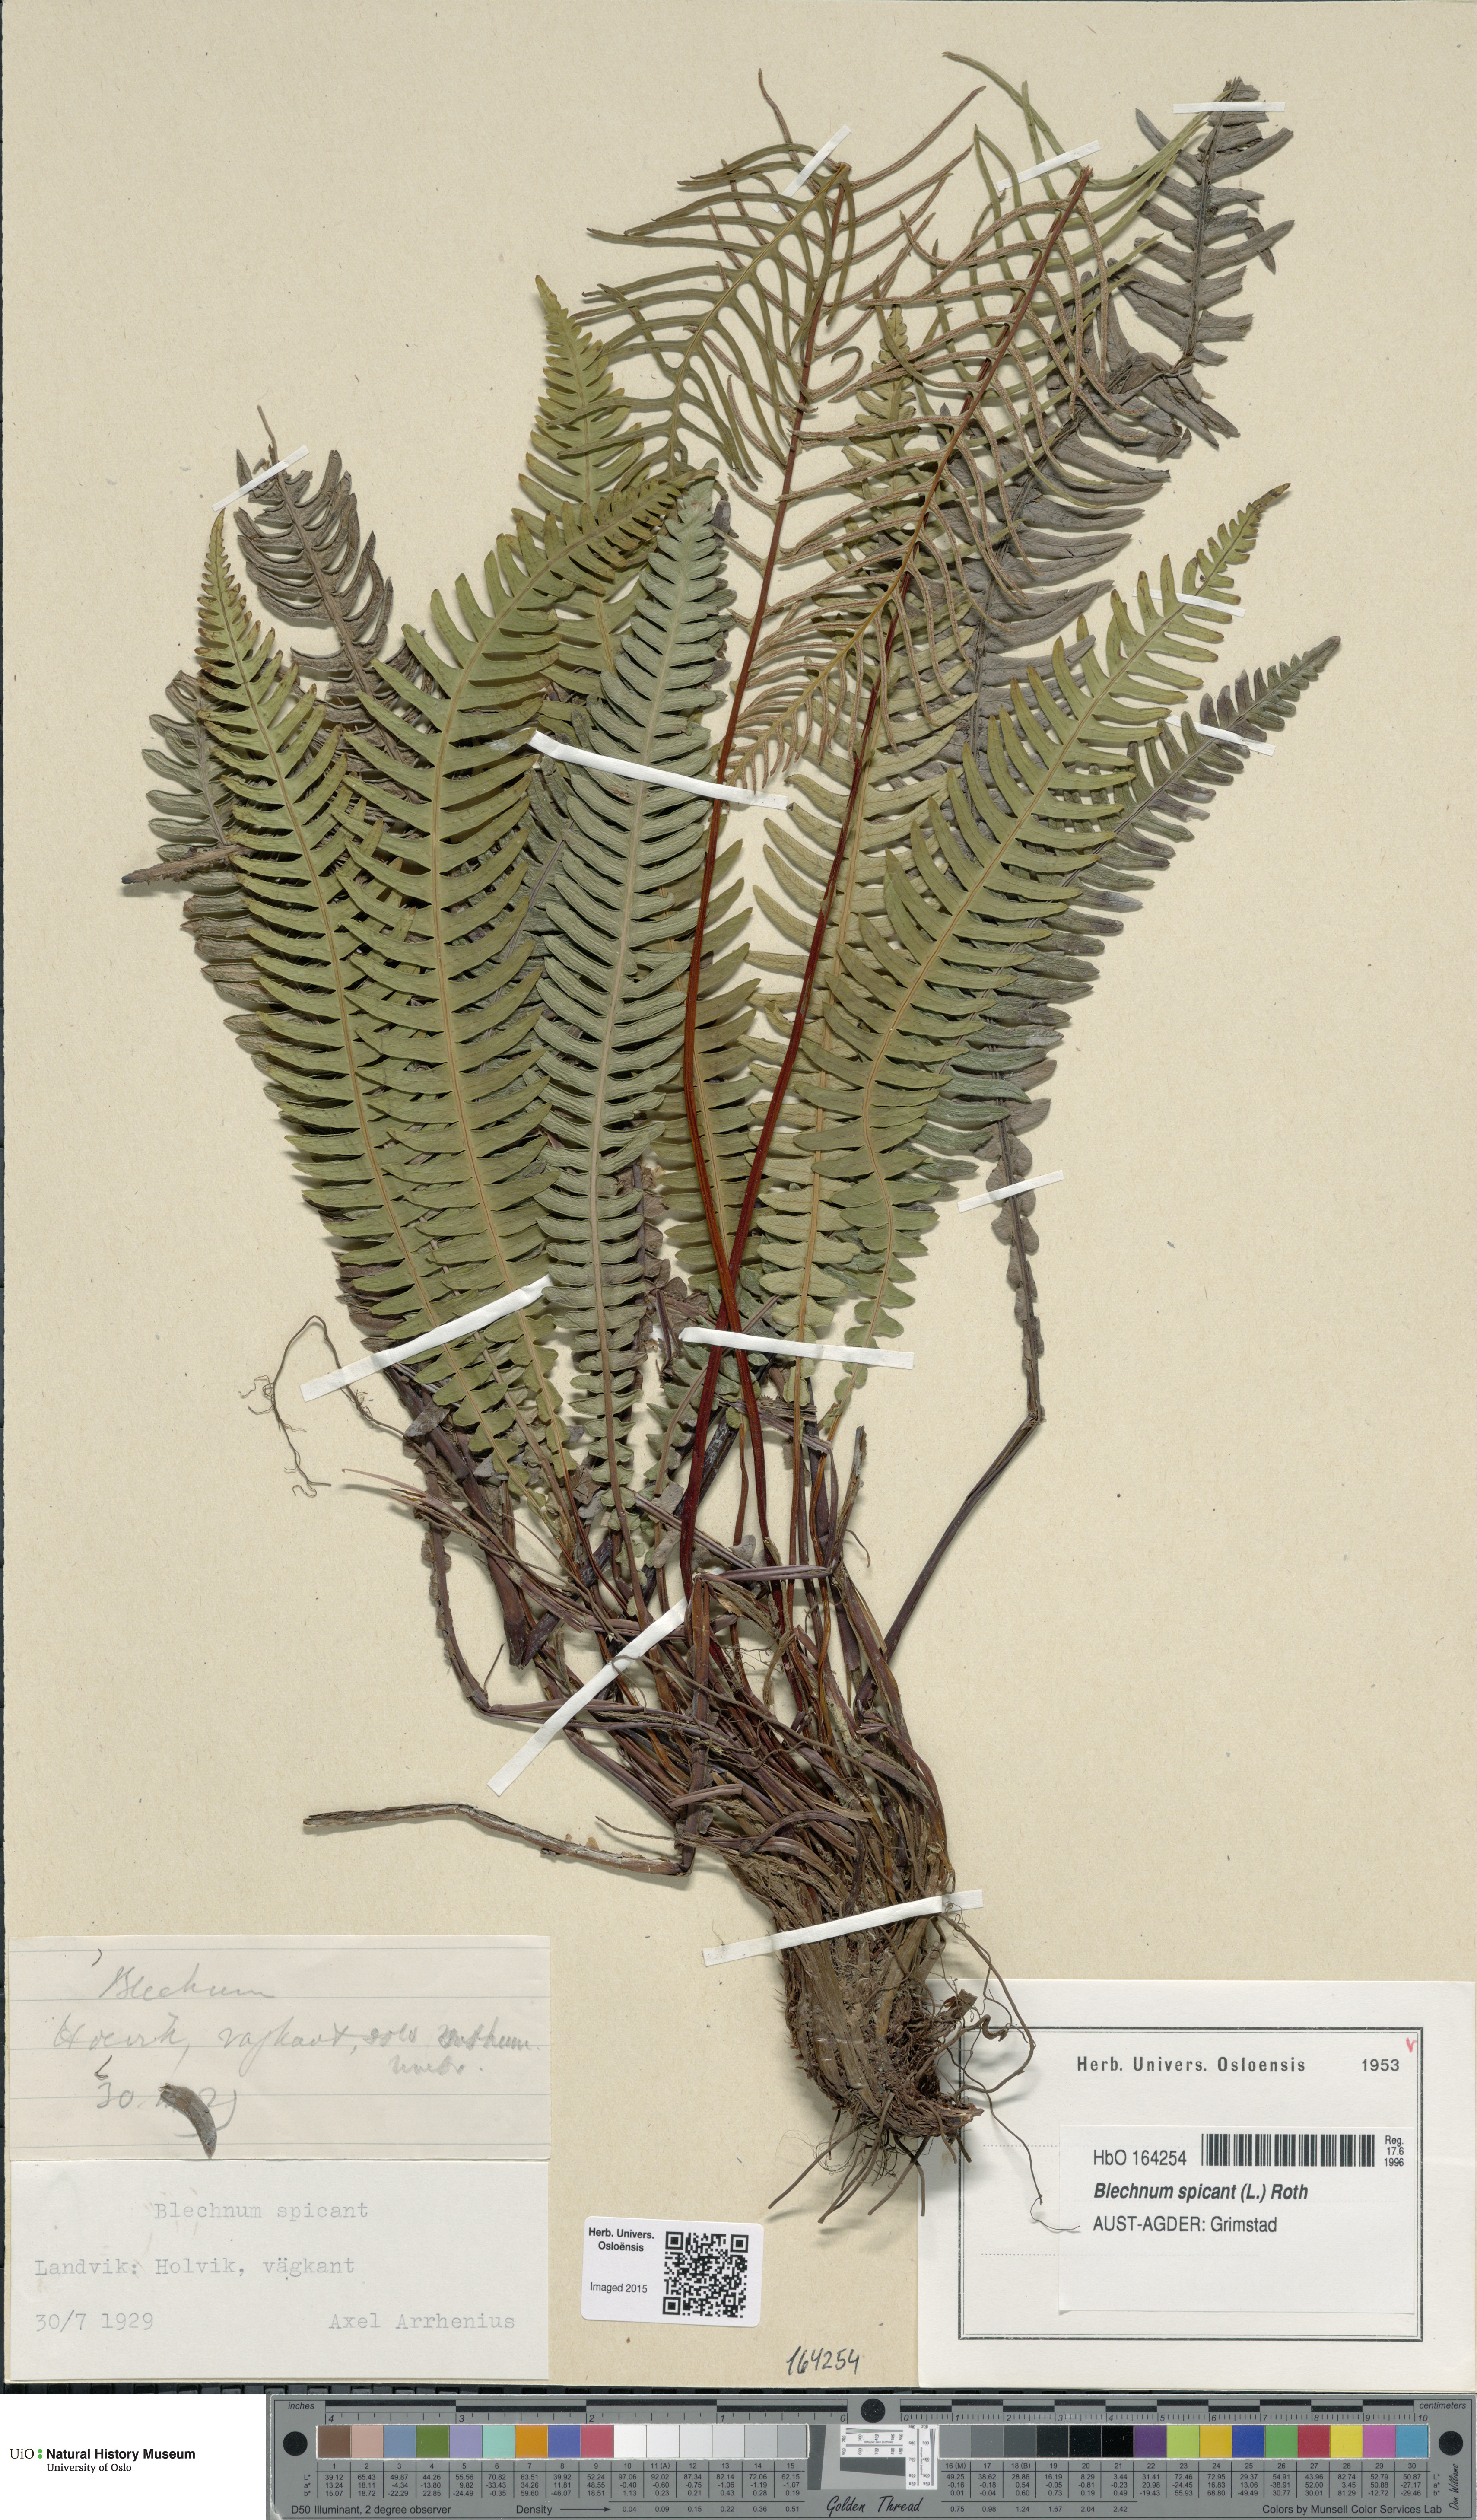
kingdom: Plantae
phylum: Tracheophyta
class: Polypodiopsida
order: Polypodiales
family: Blechnaceae
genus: Struthiopteris
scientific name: Struthiopteris spicant
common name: Deer fern
